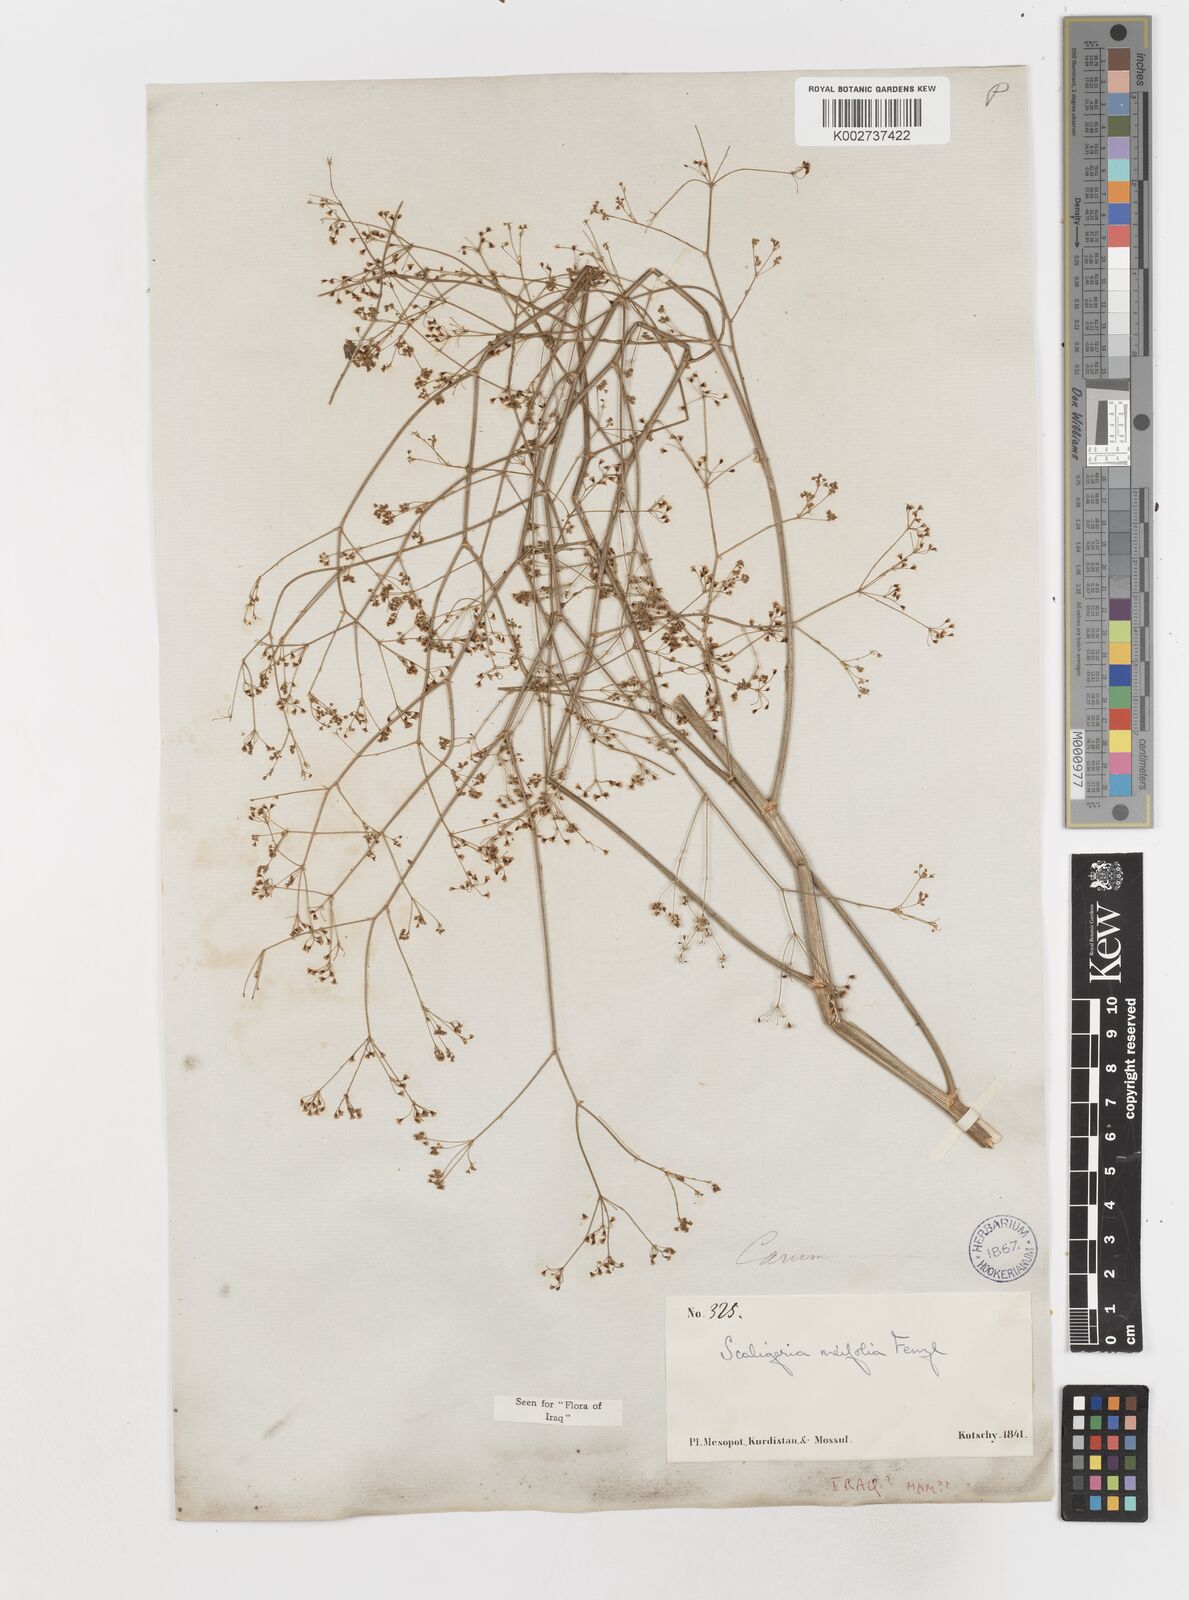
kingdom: Plantae
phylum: Tracheophyta
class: Magnoliopsida
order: Apiales
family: Apiaceae
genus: Elaeosticta
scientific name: Elaeosticta meifolia
